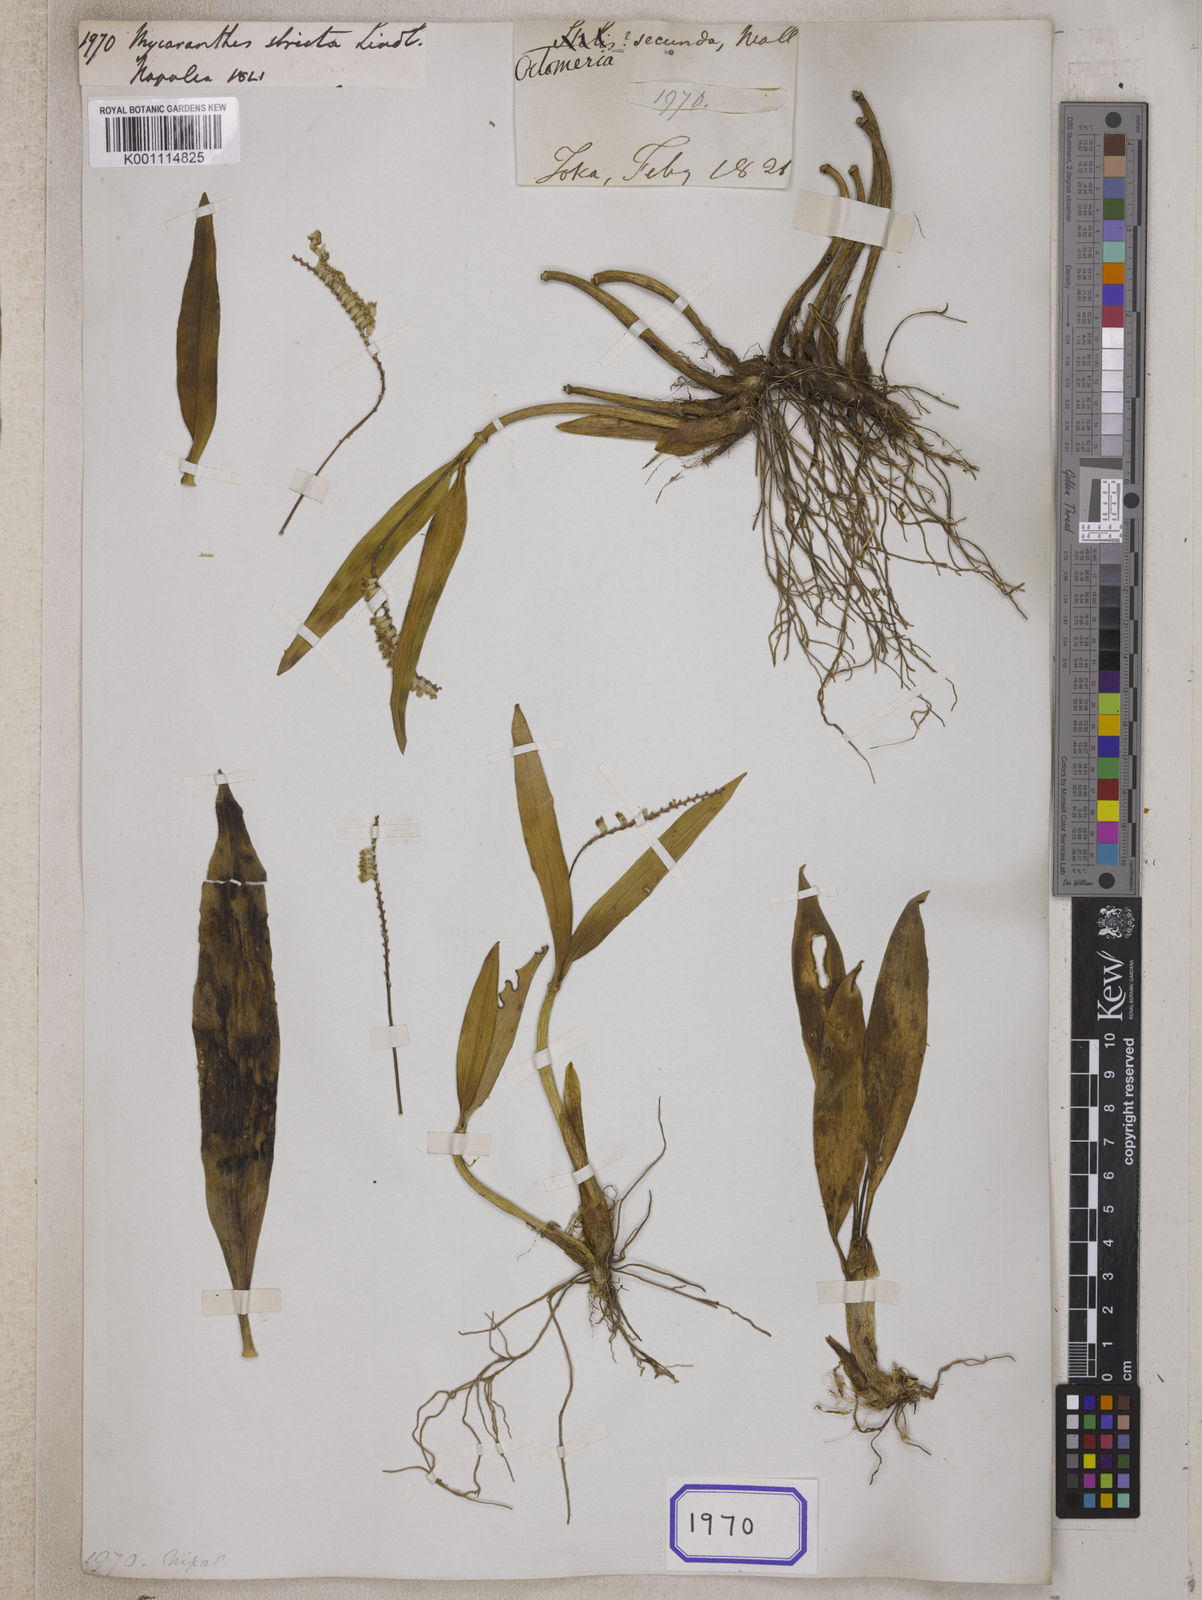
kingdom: Plantae
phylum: Tracheophyta
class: Liliopsida
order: Asparagales
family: Orchidaceae
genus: Mycaranthes
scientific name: Mycaranthes
